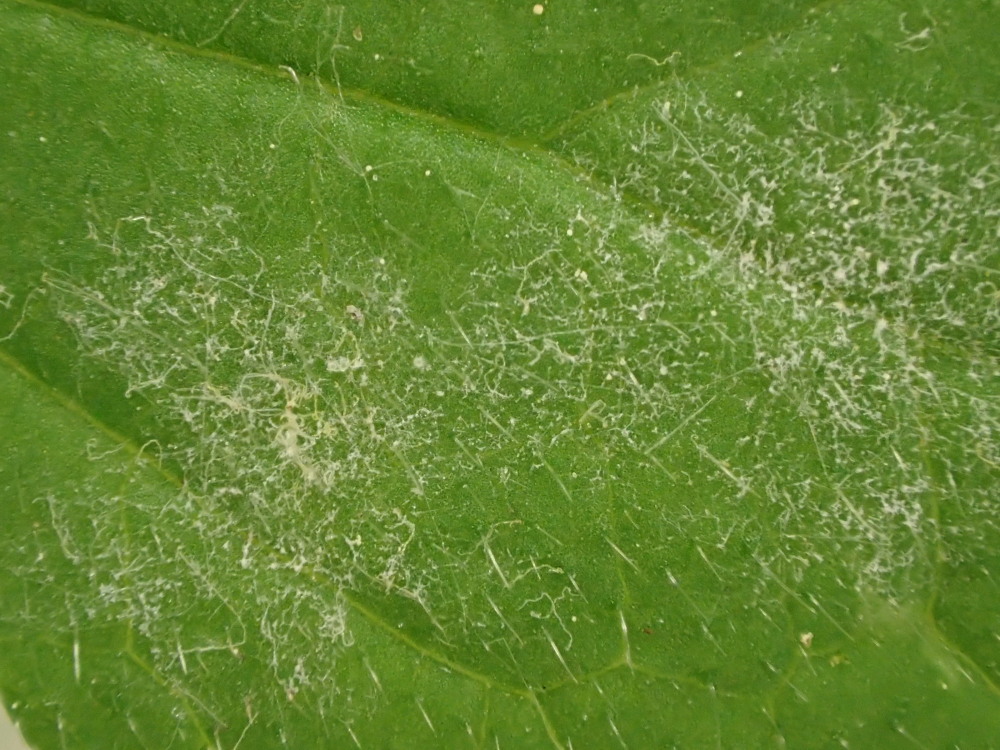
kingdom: Fungi
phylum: Ascomycota
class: Leotiomycetes
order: Helotiales
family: Erysiphaceae
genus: Podosphaera
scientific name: Podosphaera aphanis
